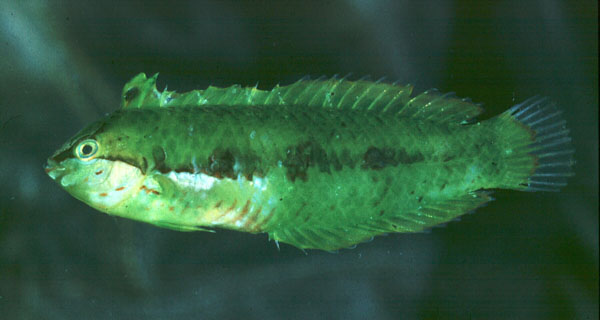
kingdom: Animalia
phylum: Chordata
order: Perciformes
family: Labridae
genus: Novaculoides
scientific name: Novaculoides macrolepidotus
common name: Seagrass wrasse
